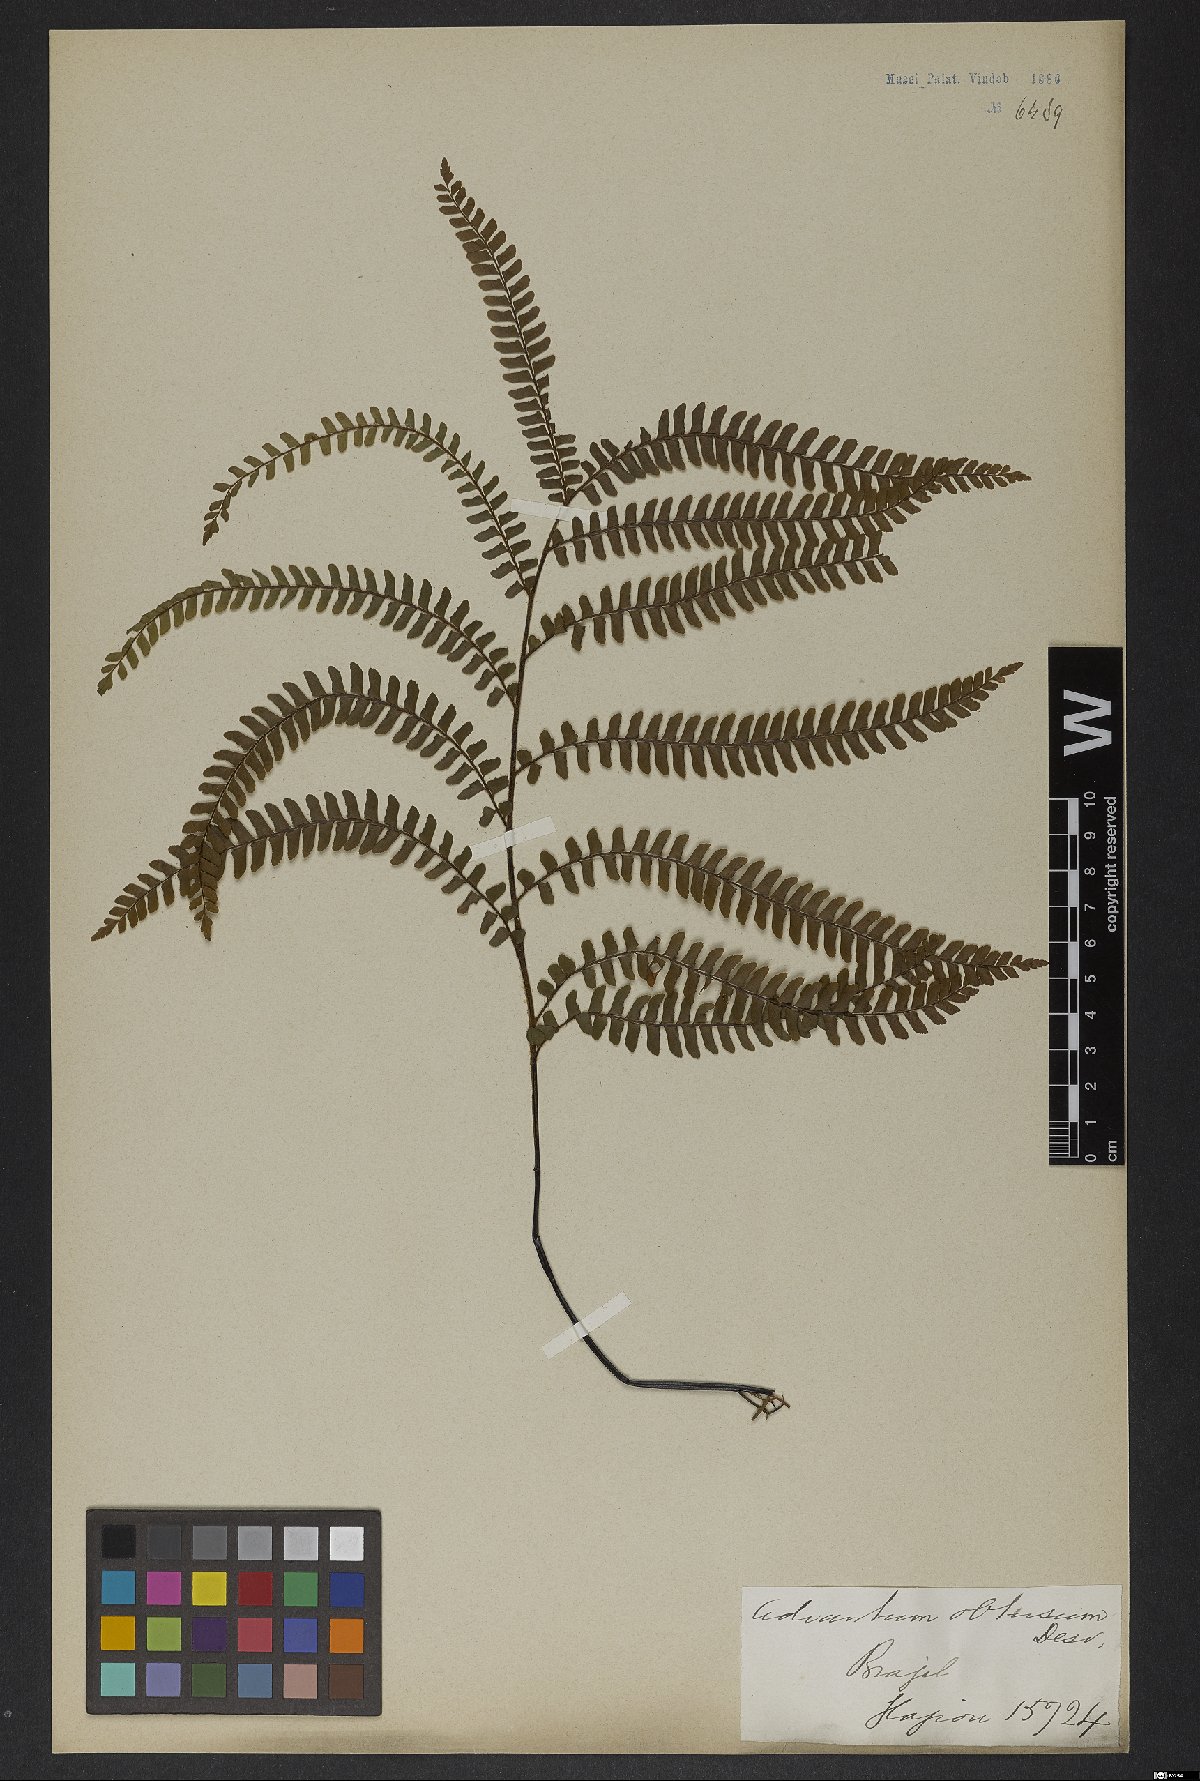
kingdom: Plantae
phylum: Tracheophyta
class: Polypodiopsida
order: Polypodiales
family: Pteridaceae
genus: Adiantum
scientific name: Adiantum serratodentatum
